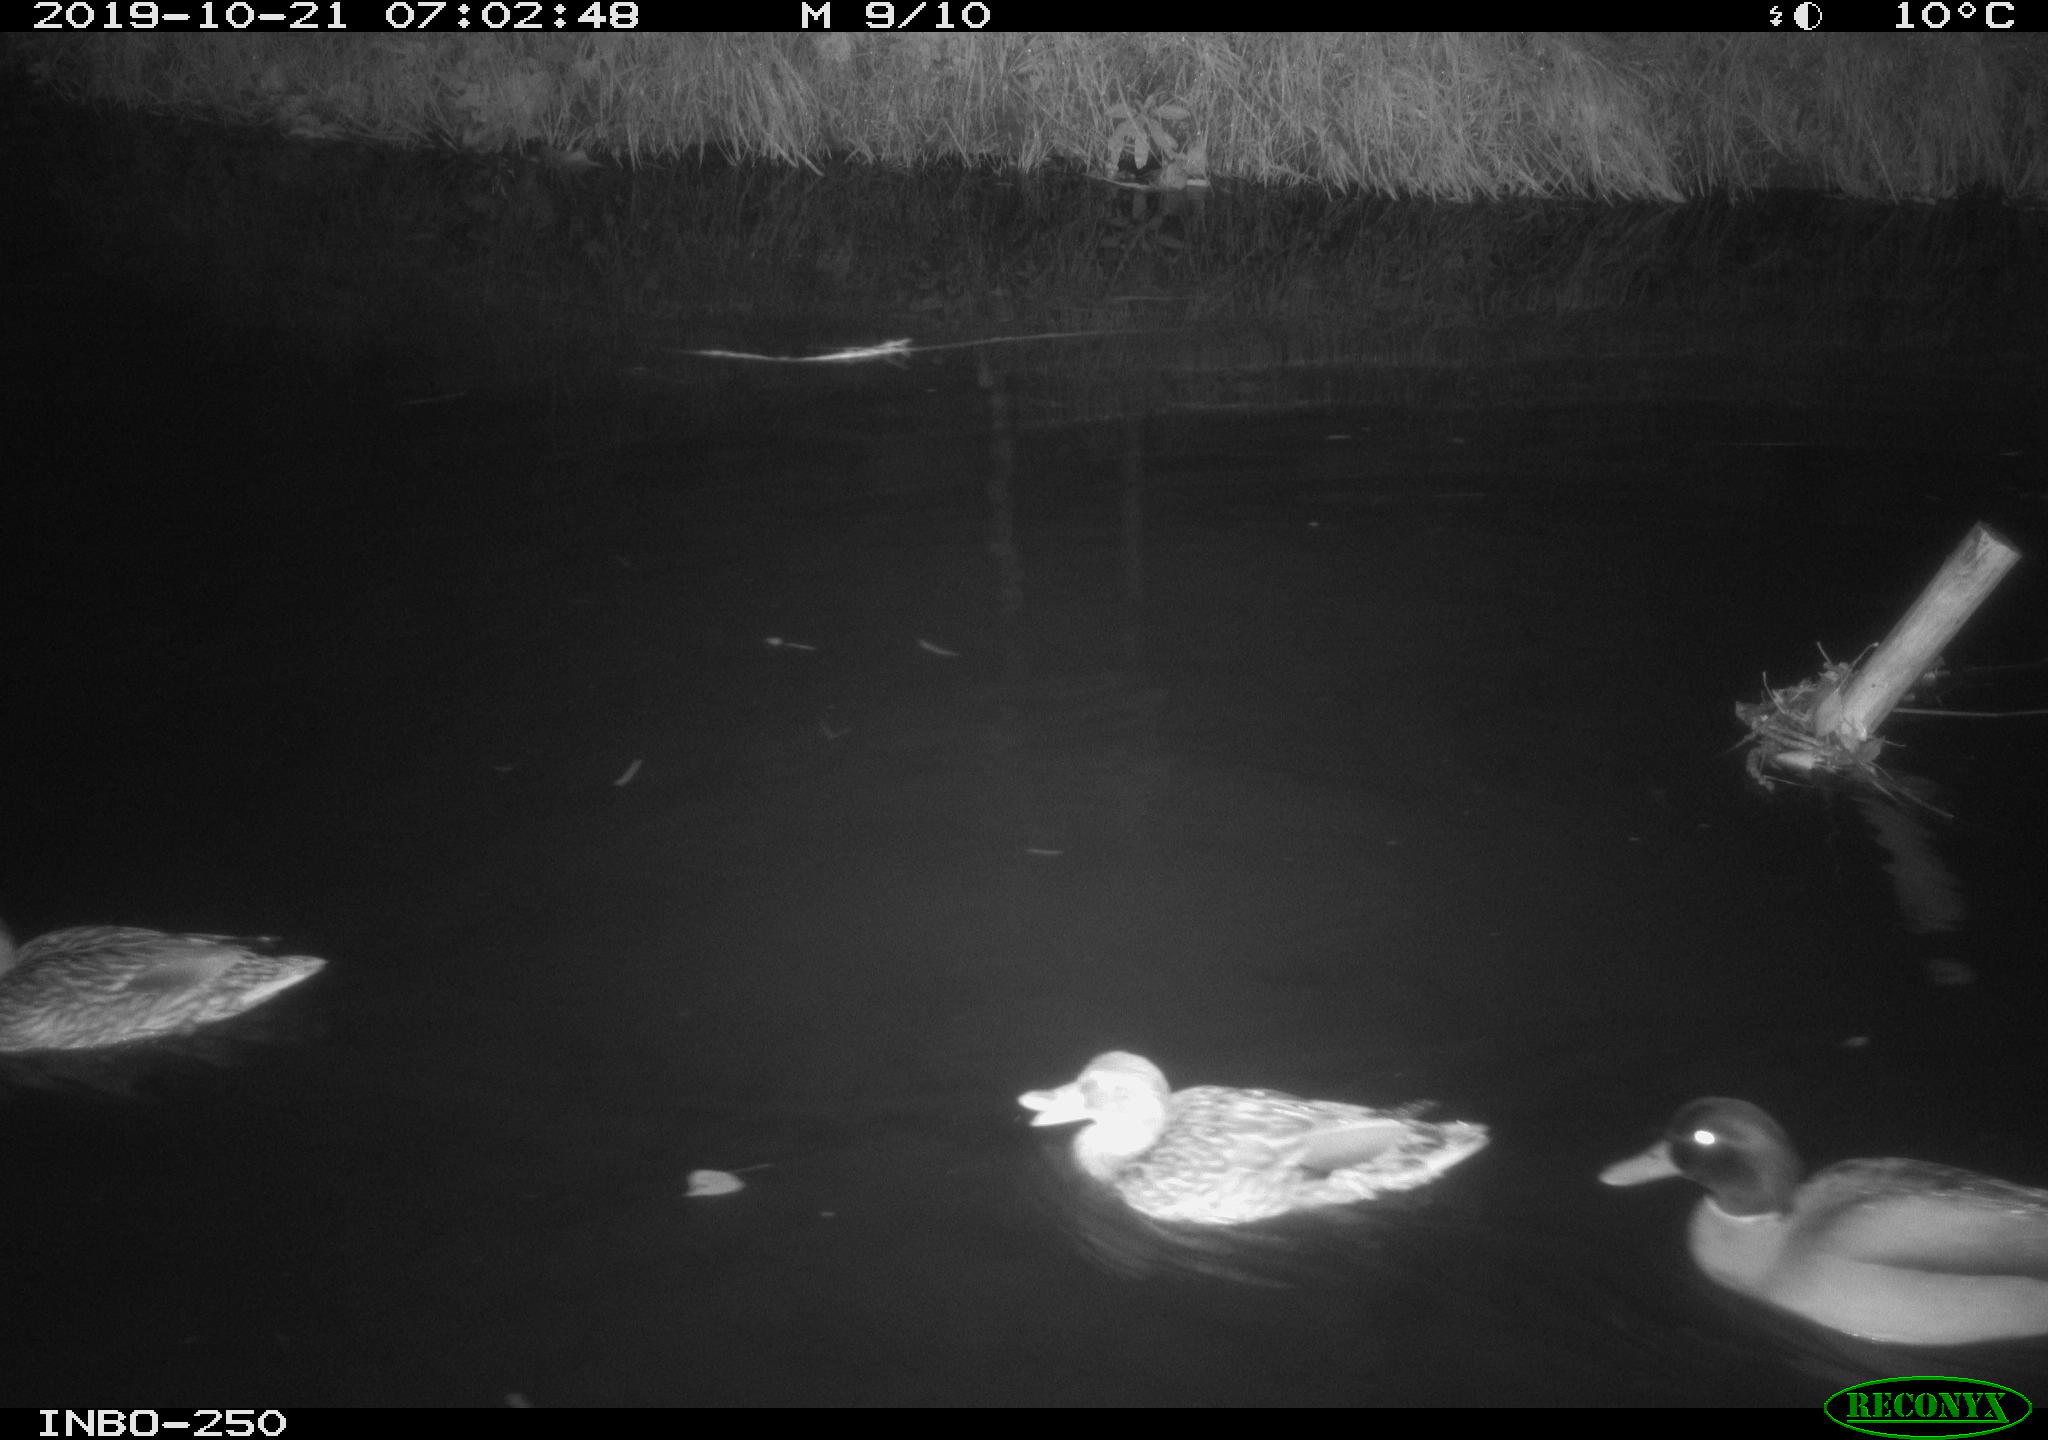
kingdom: Animalia
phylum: Chordata
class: Aves
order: Anseriformes
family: Anatidae
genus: Anas
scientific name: Anas platyrhynchos
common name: Mallard
